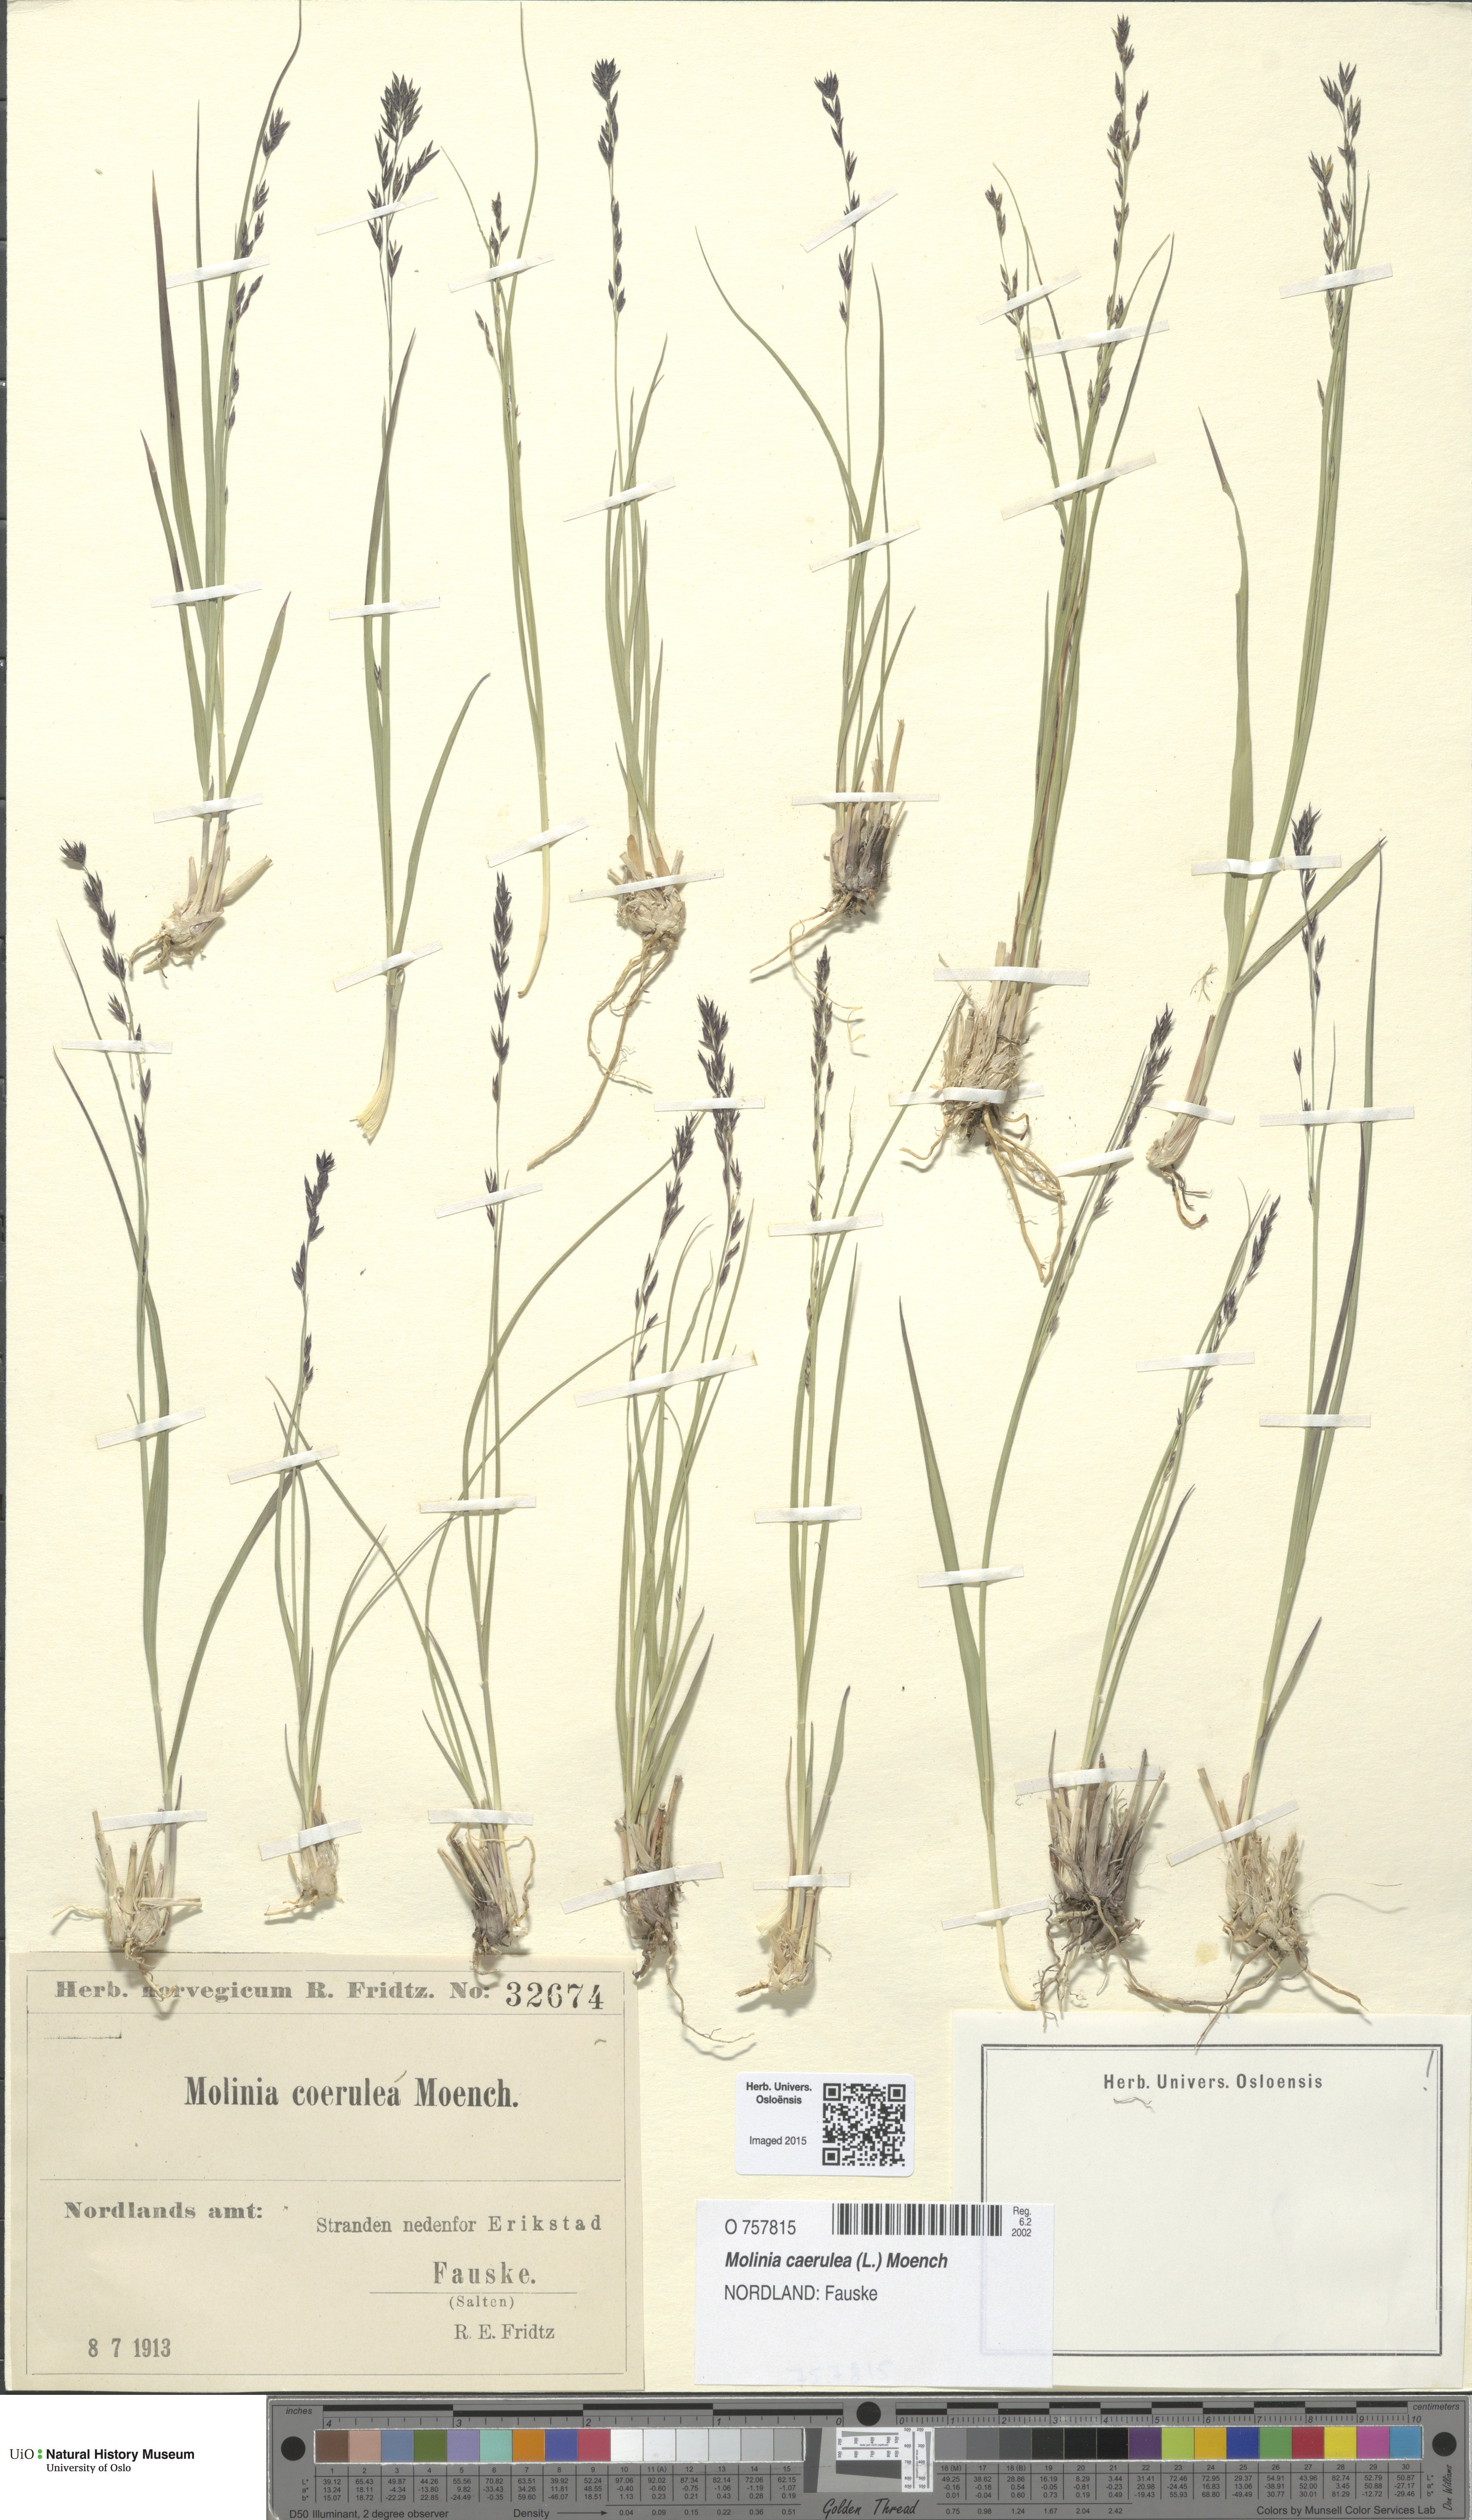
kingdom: Plantae
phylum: Tracheophyta
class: Liliopsida
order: Poales
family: Poaceae
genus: Molinia
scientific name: Molinia caerulea
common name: Purple moor-grass
